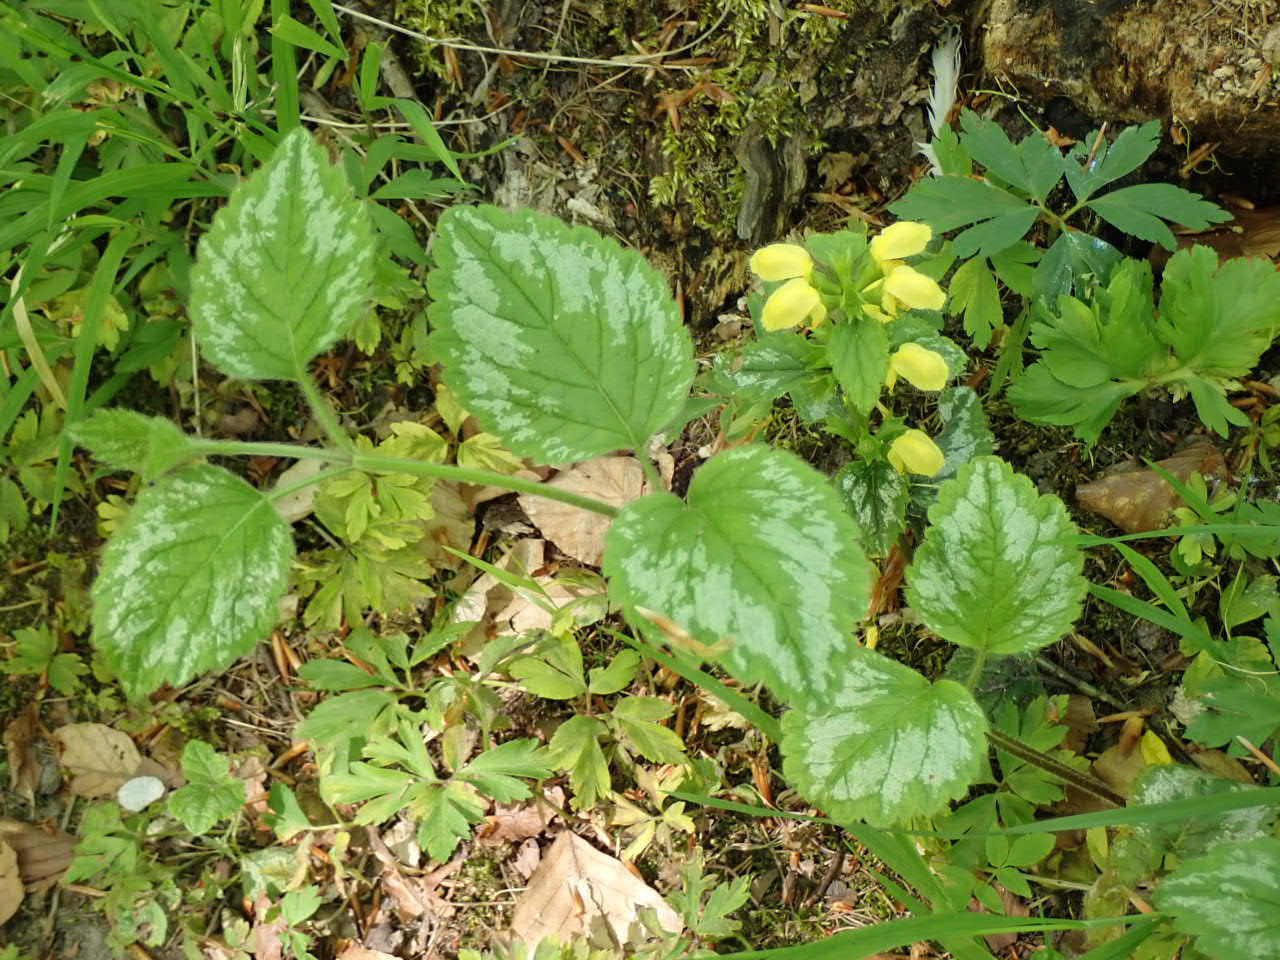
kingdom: Plantae
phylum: Tracheophyta
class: Magnoliopsida
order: Lamiales
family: Lamiaceae
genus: Lamium
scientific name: Lamium galeobdolon
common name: Have-guldnælde
